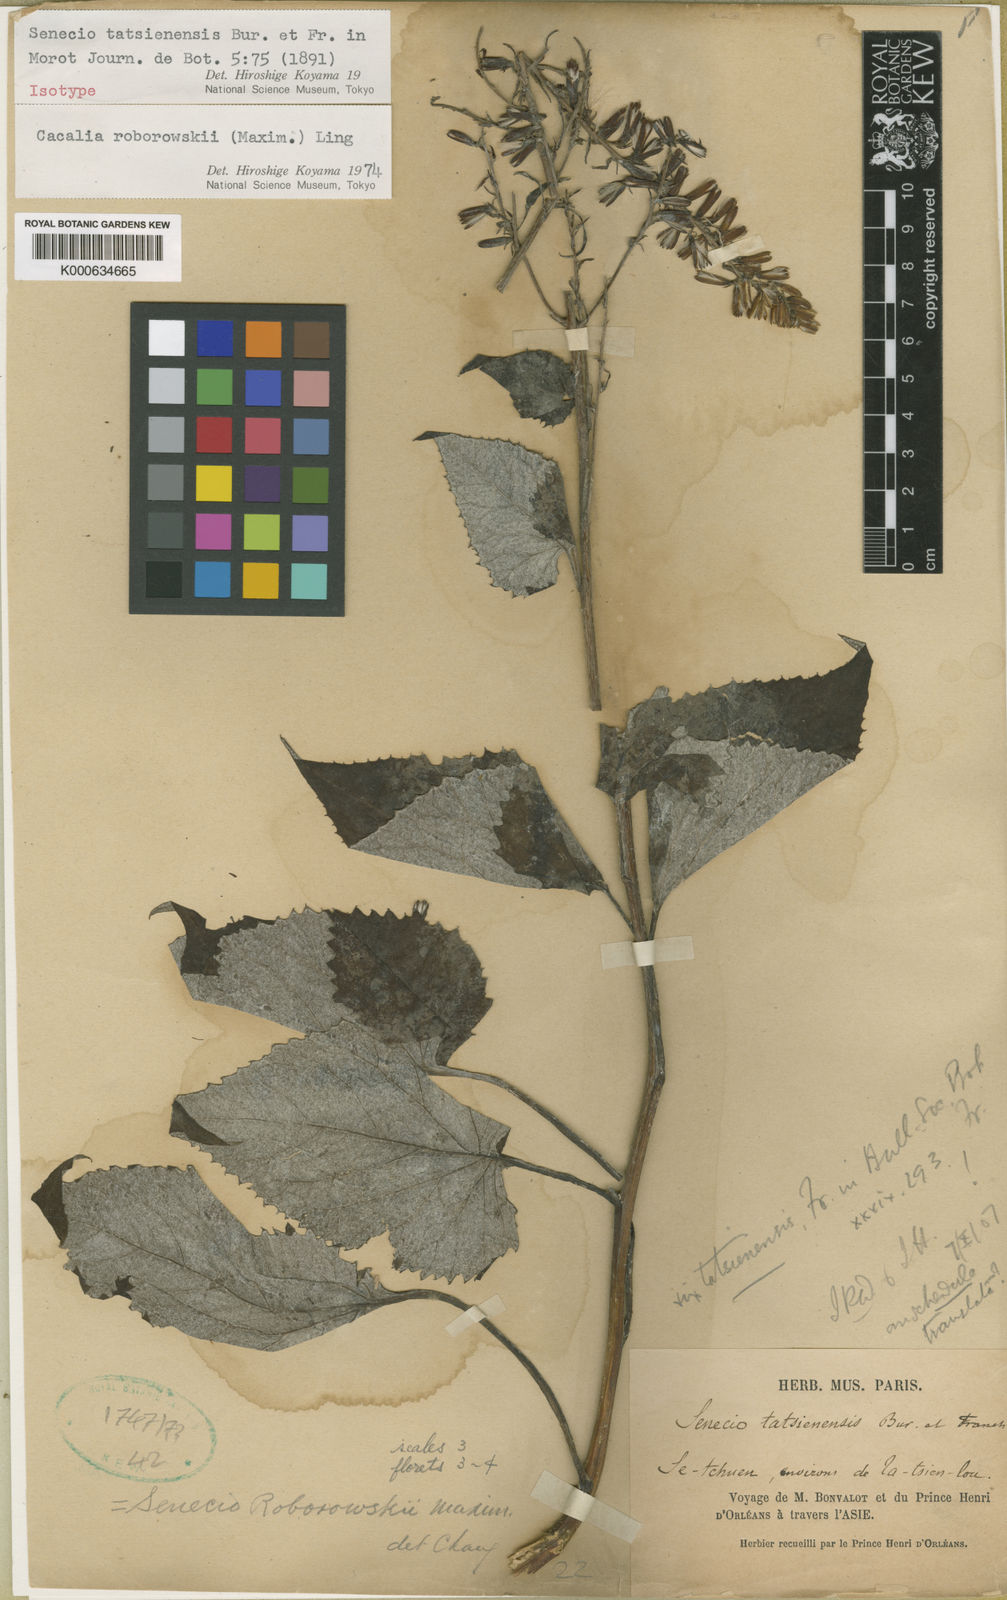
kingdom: Plantae
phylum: Tracheophyta
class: Magnoliopsida
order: Asterales
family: Asteraceae
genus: Parasenecio
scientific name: Parasenecio roborowskii
